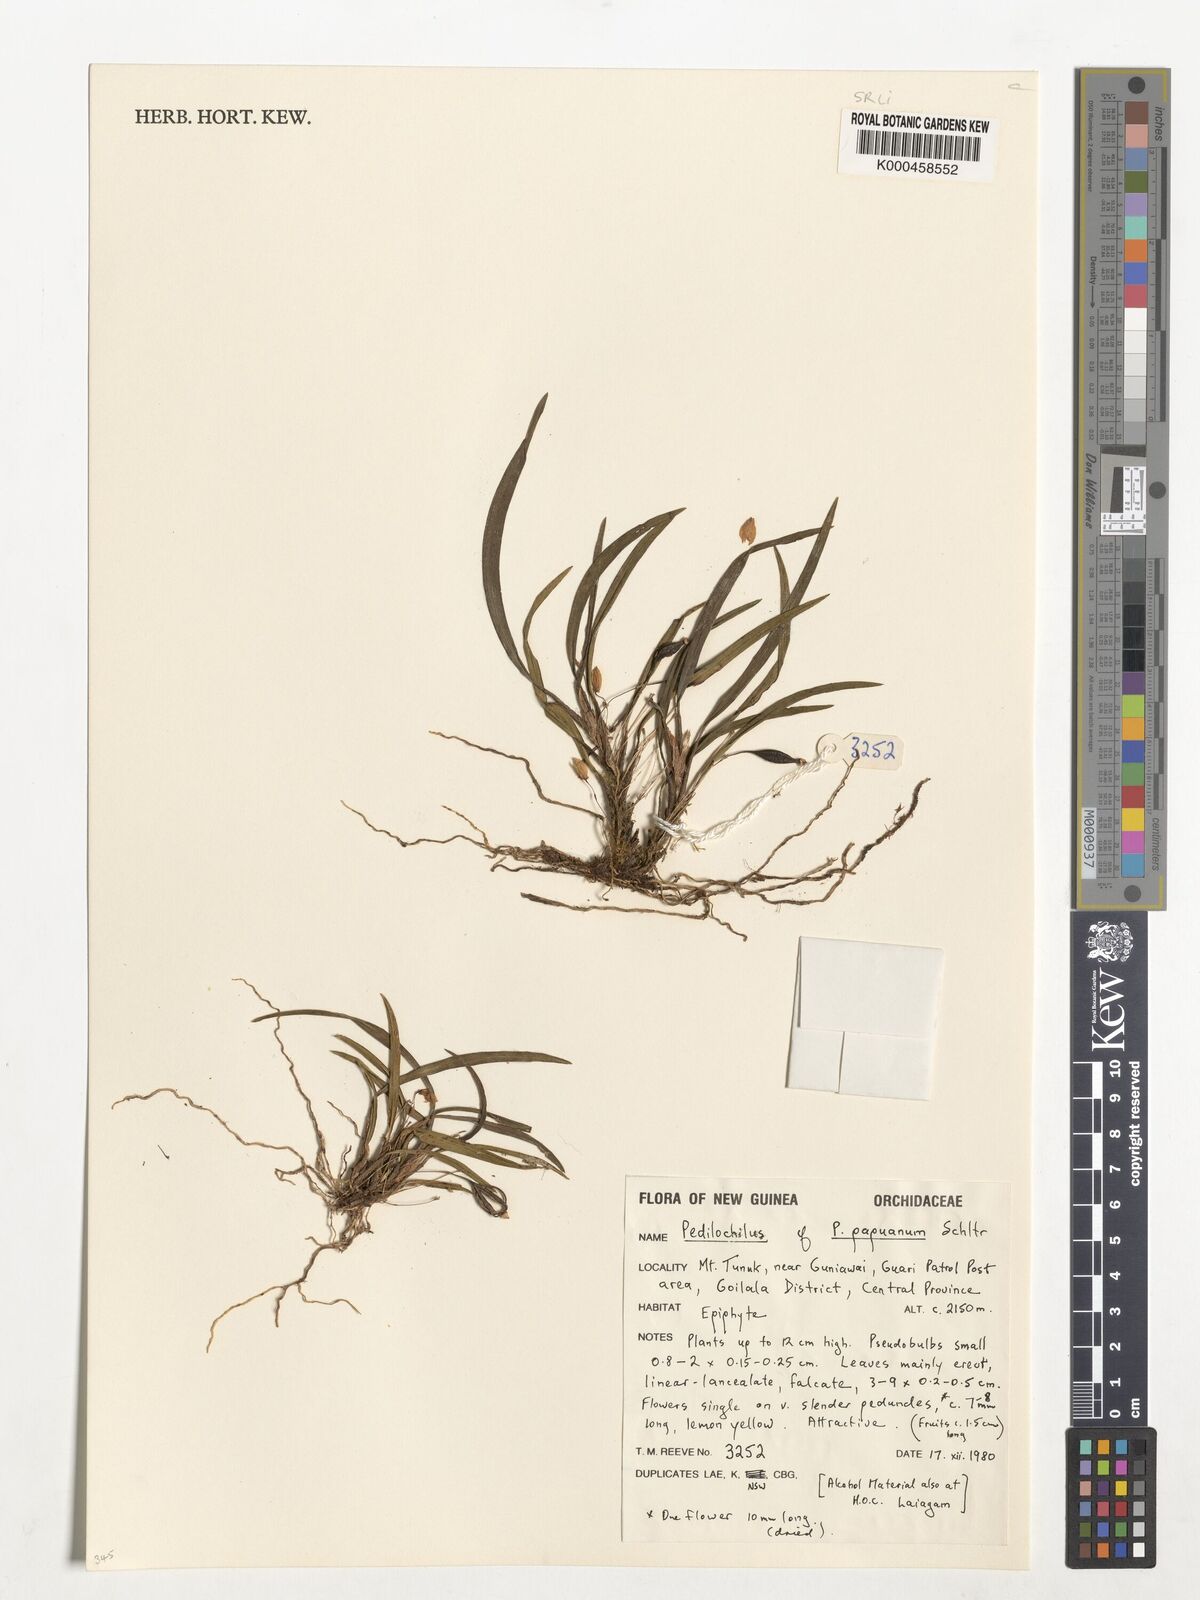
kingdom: Plantae
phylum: Tracheophyta
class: Liliopsida
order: Asparagales
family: Orchidaceae
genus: Bulbophyllum
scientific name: Bulbophyllum papuanum
